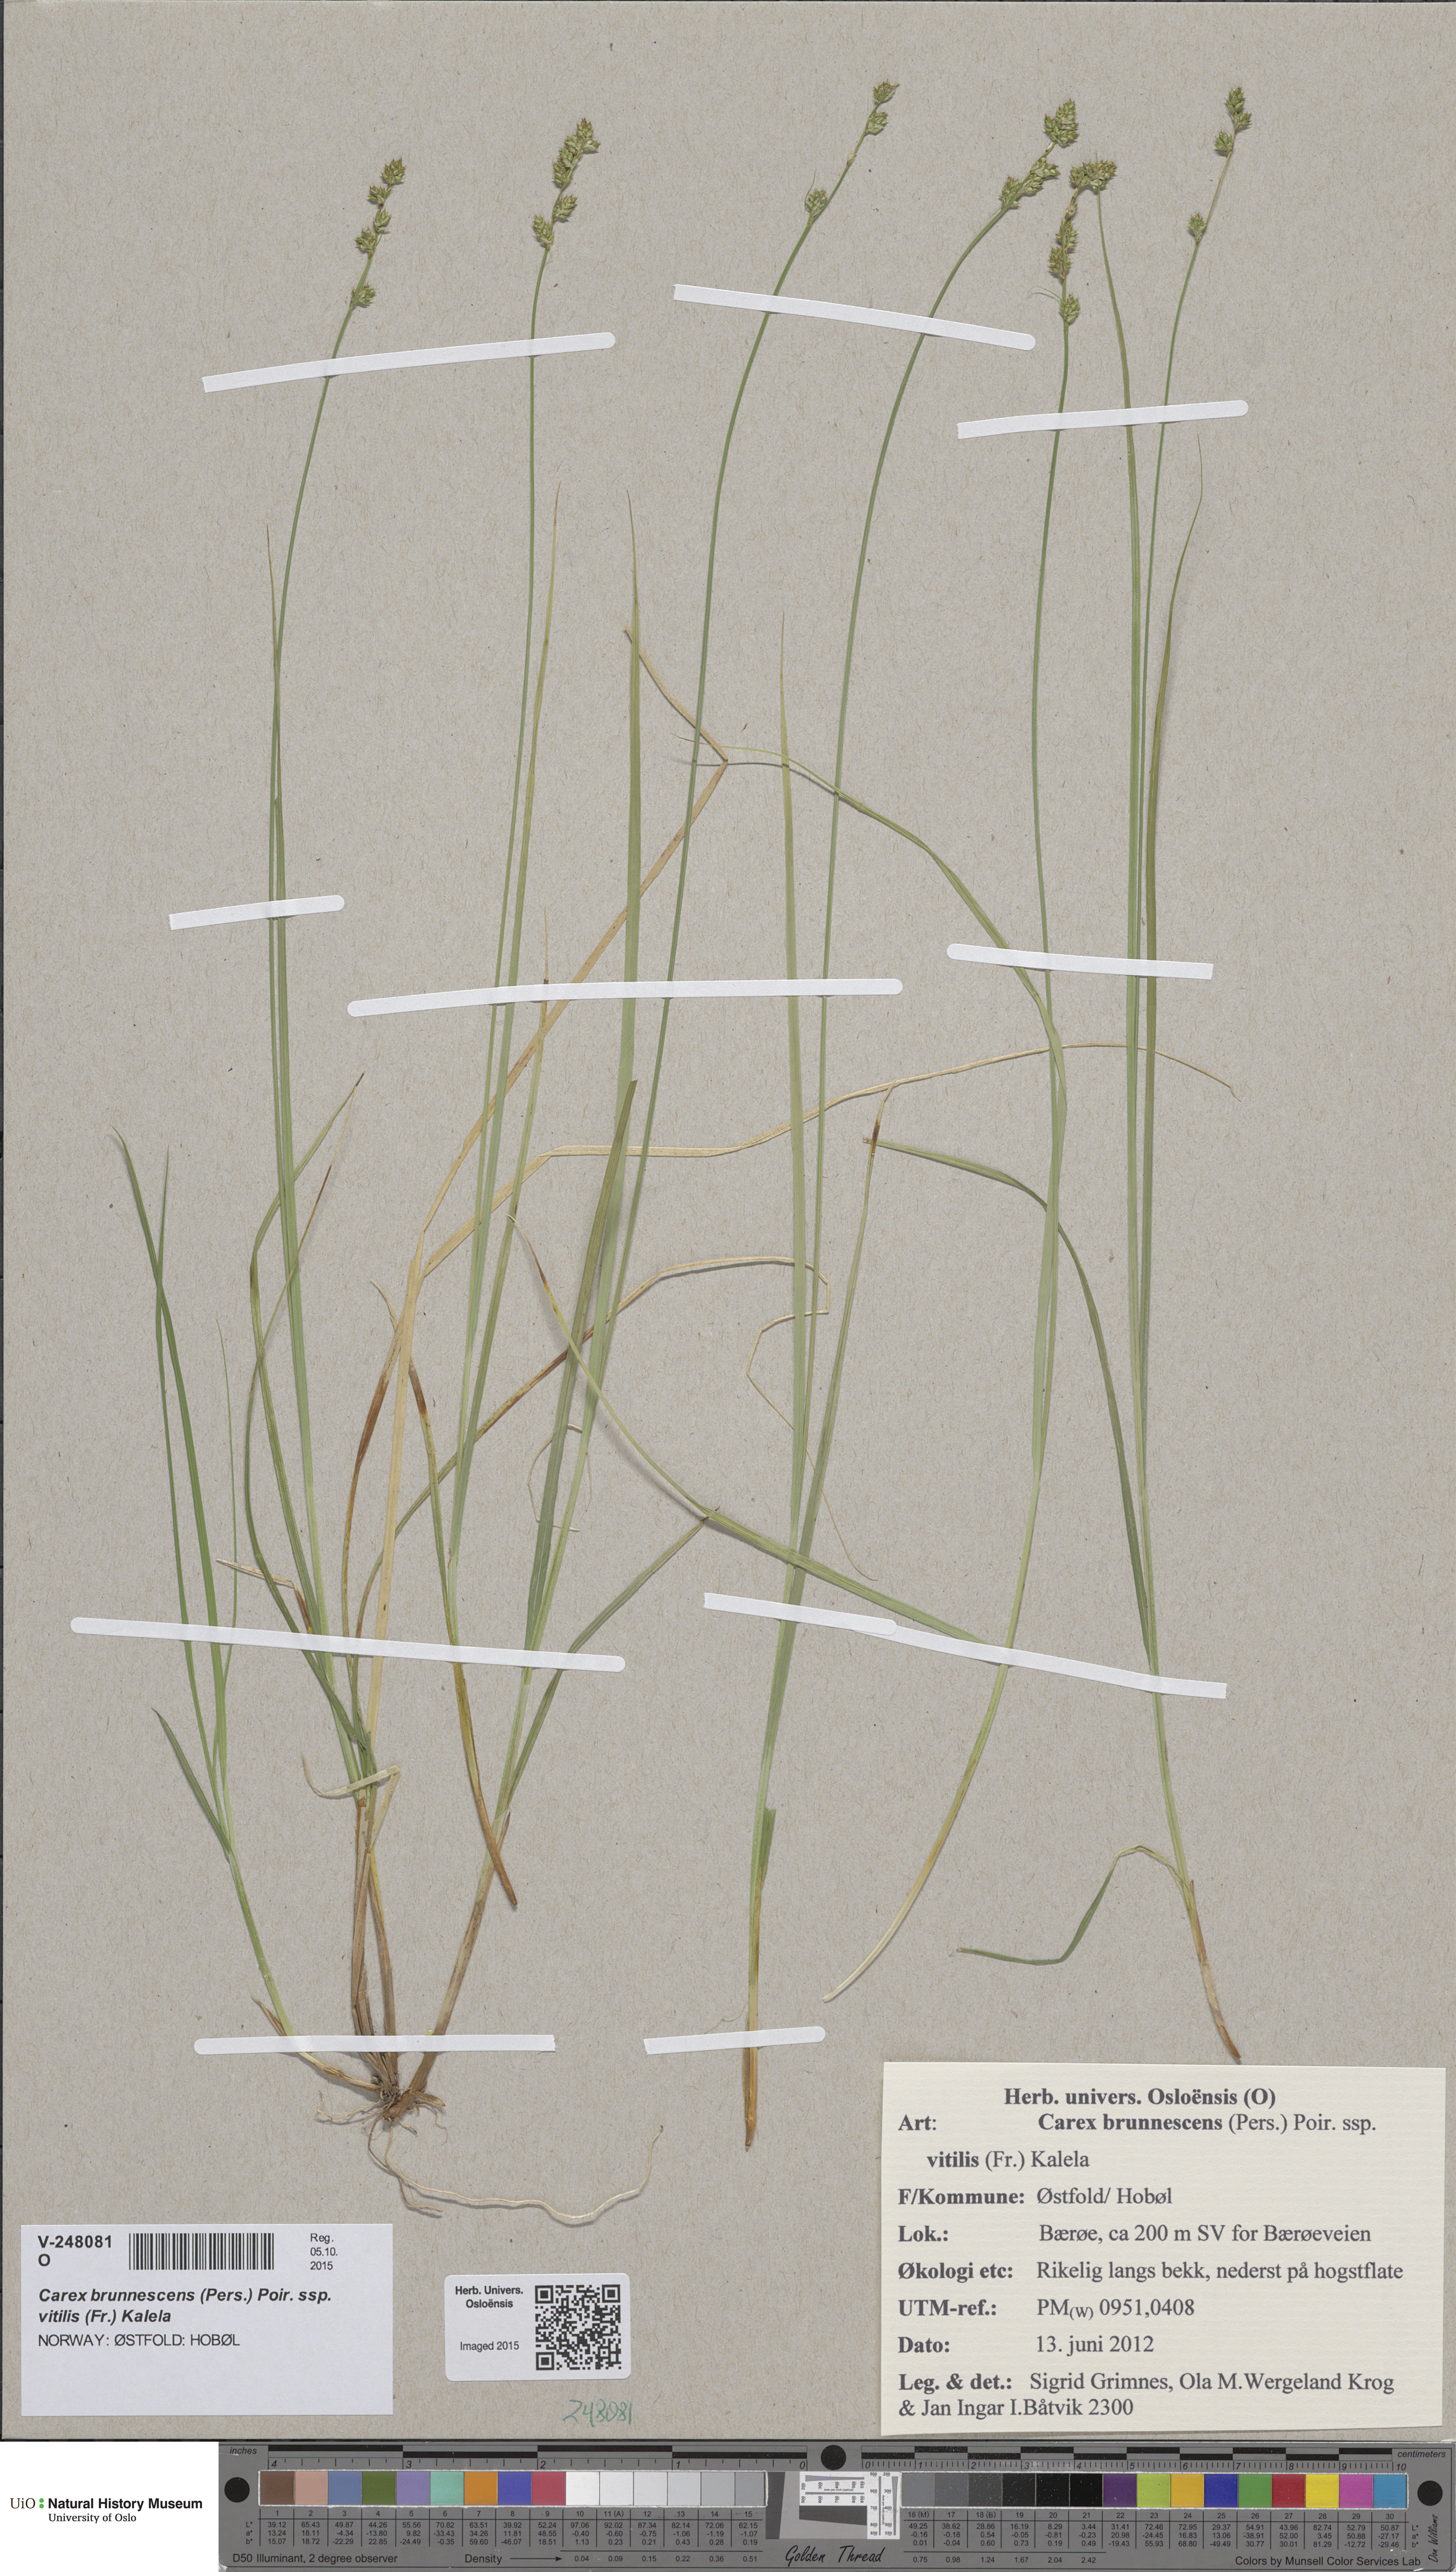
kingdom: Plantae
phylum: Tracheophyta
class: Liliopsida
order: Poales
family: Cyperaceae
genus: Carex
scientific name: Carex brunnescens
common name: Brown sedge
